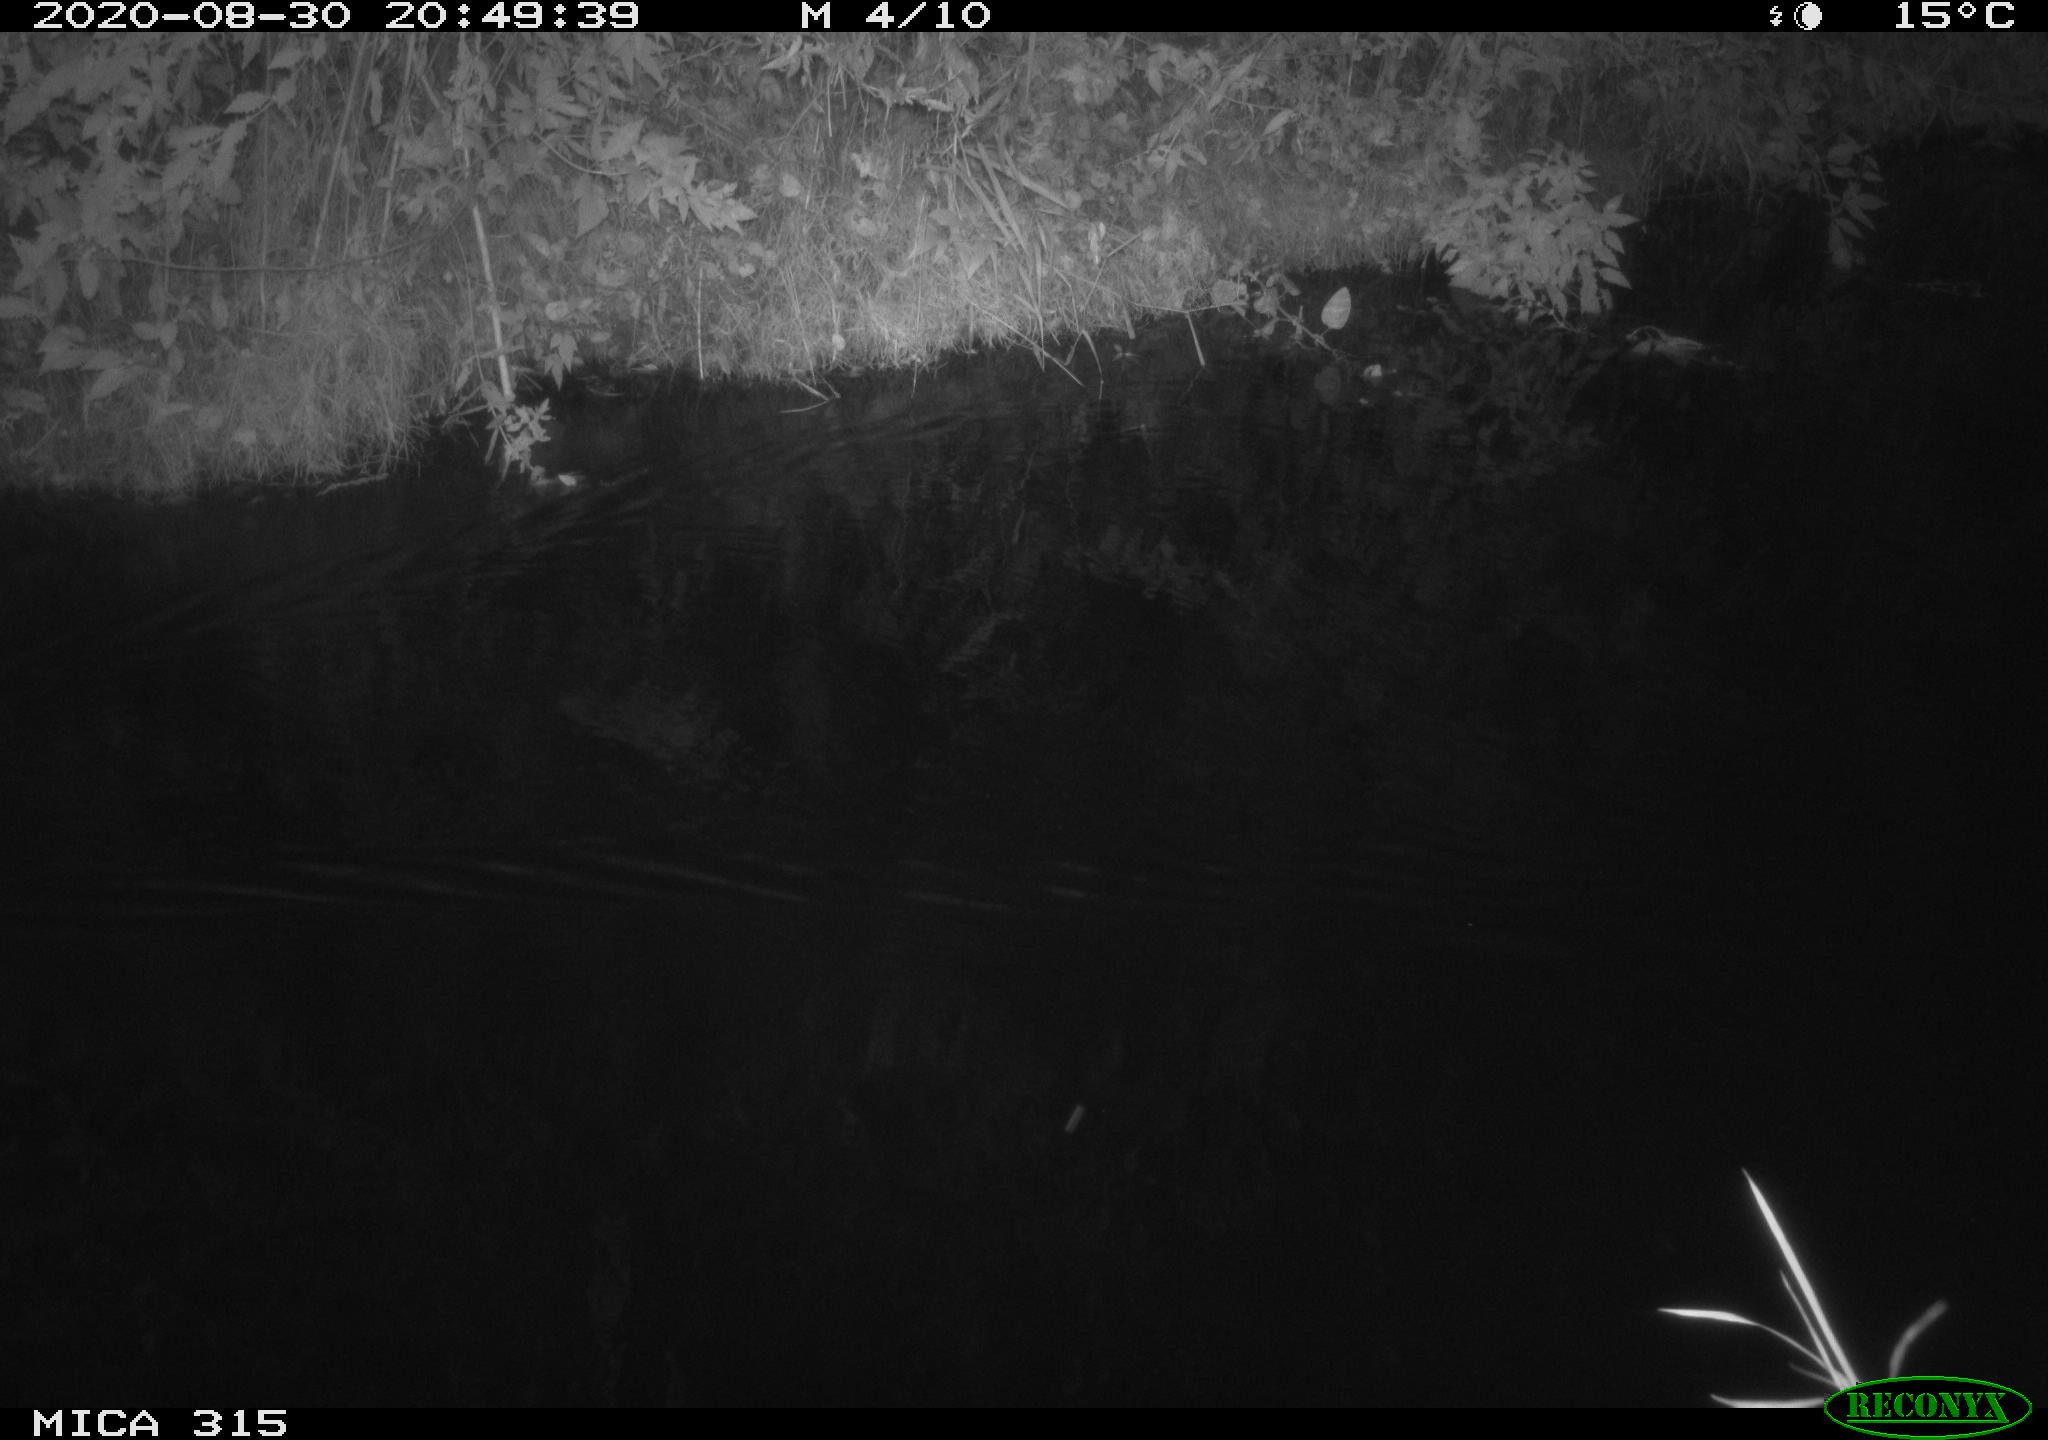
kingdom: Animalia
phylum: Chordata
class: Aves
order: Anseriformes
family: Anatidae
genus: Anas
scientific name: Anas platyrhynchos
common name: Mallard
